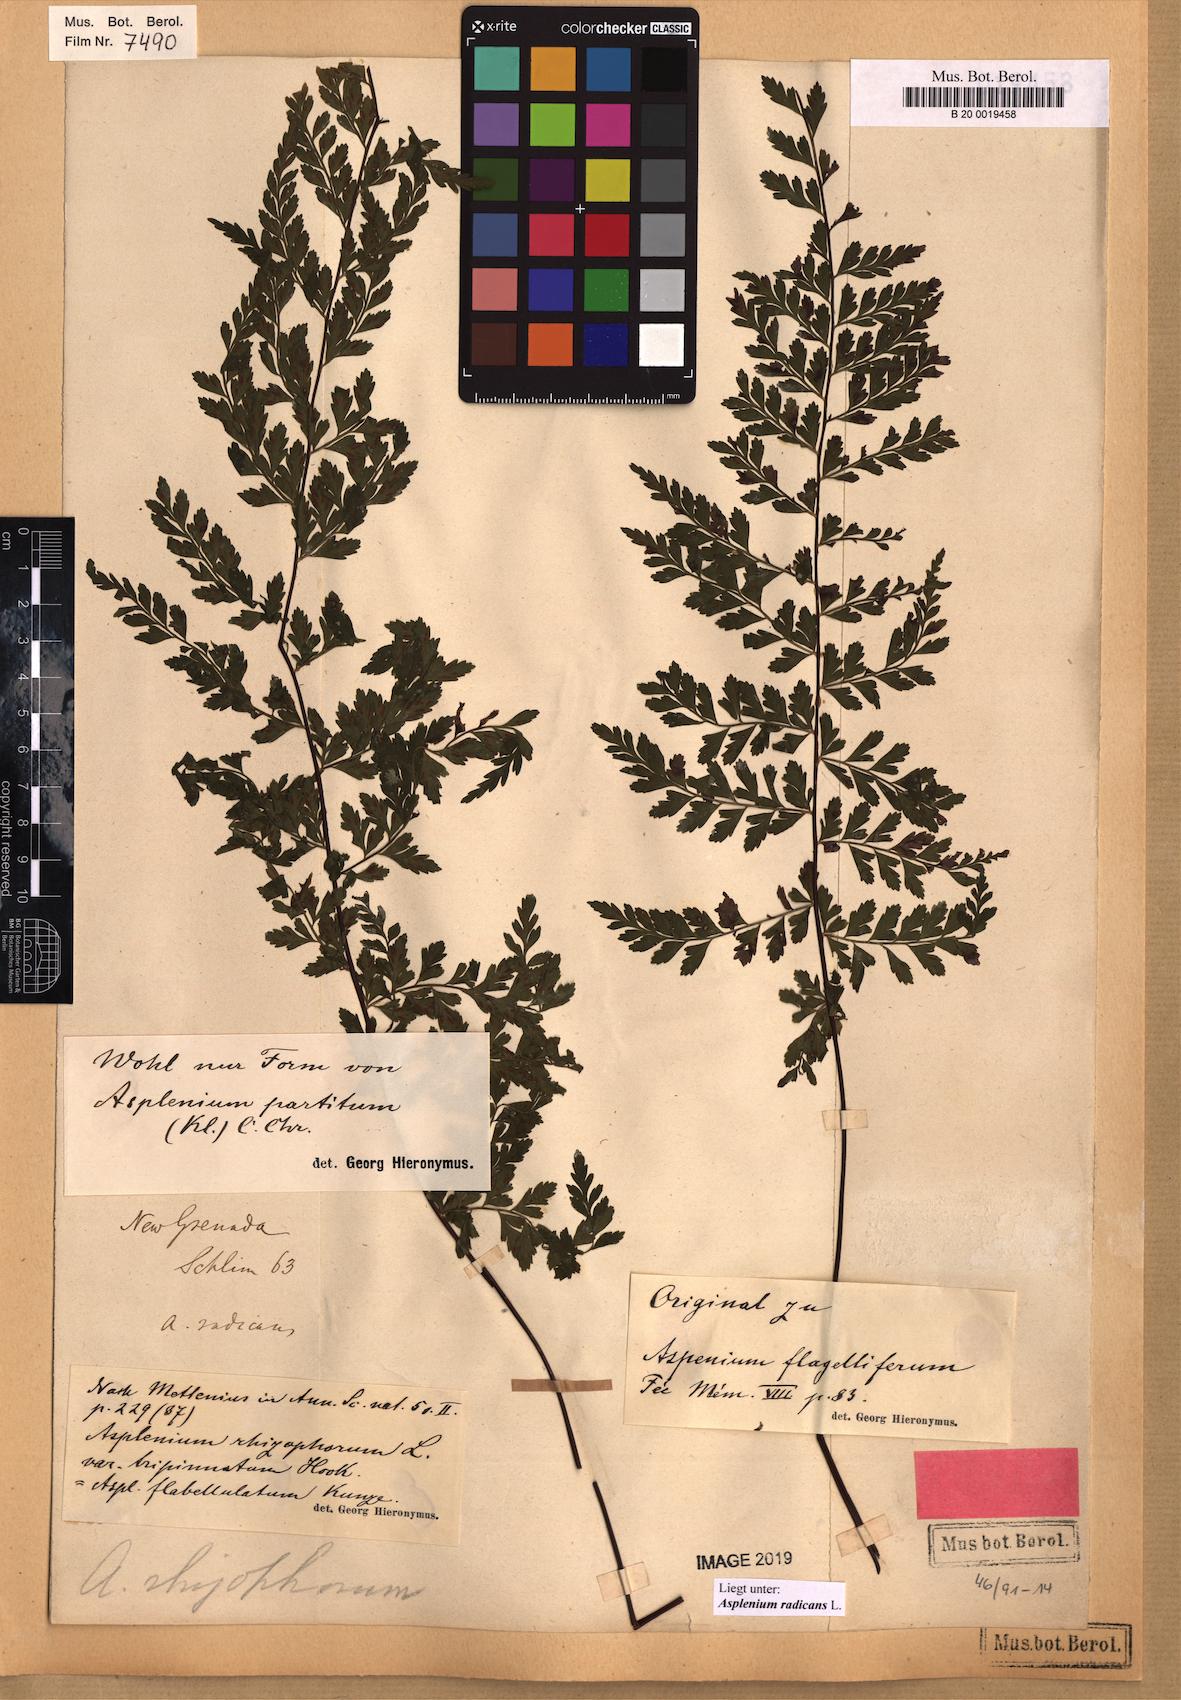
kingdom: Plantae
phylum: Tracheophyta
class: Polypodiopsida
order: Polypodiales
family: Aspleniaceae
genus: Asplenium
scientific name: Asplenium radicans
